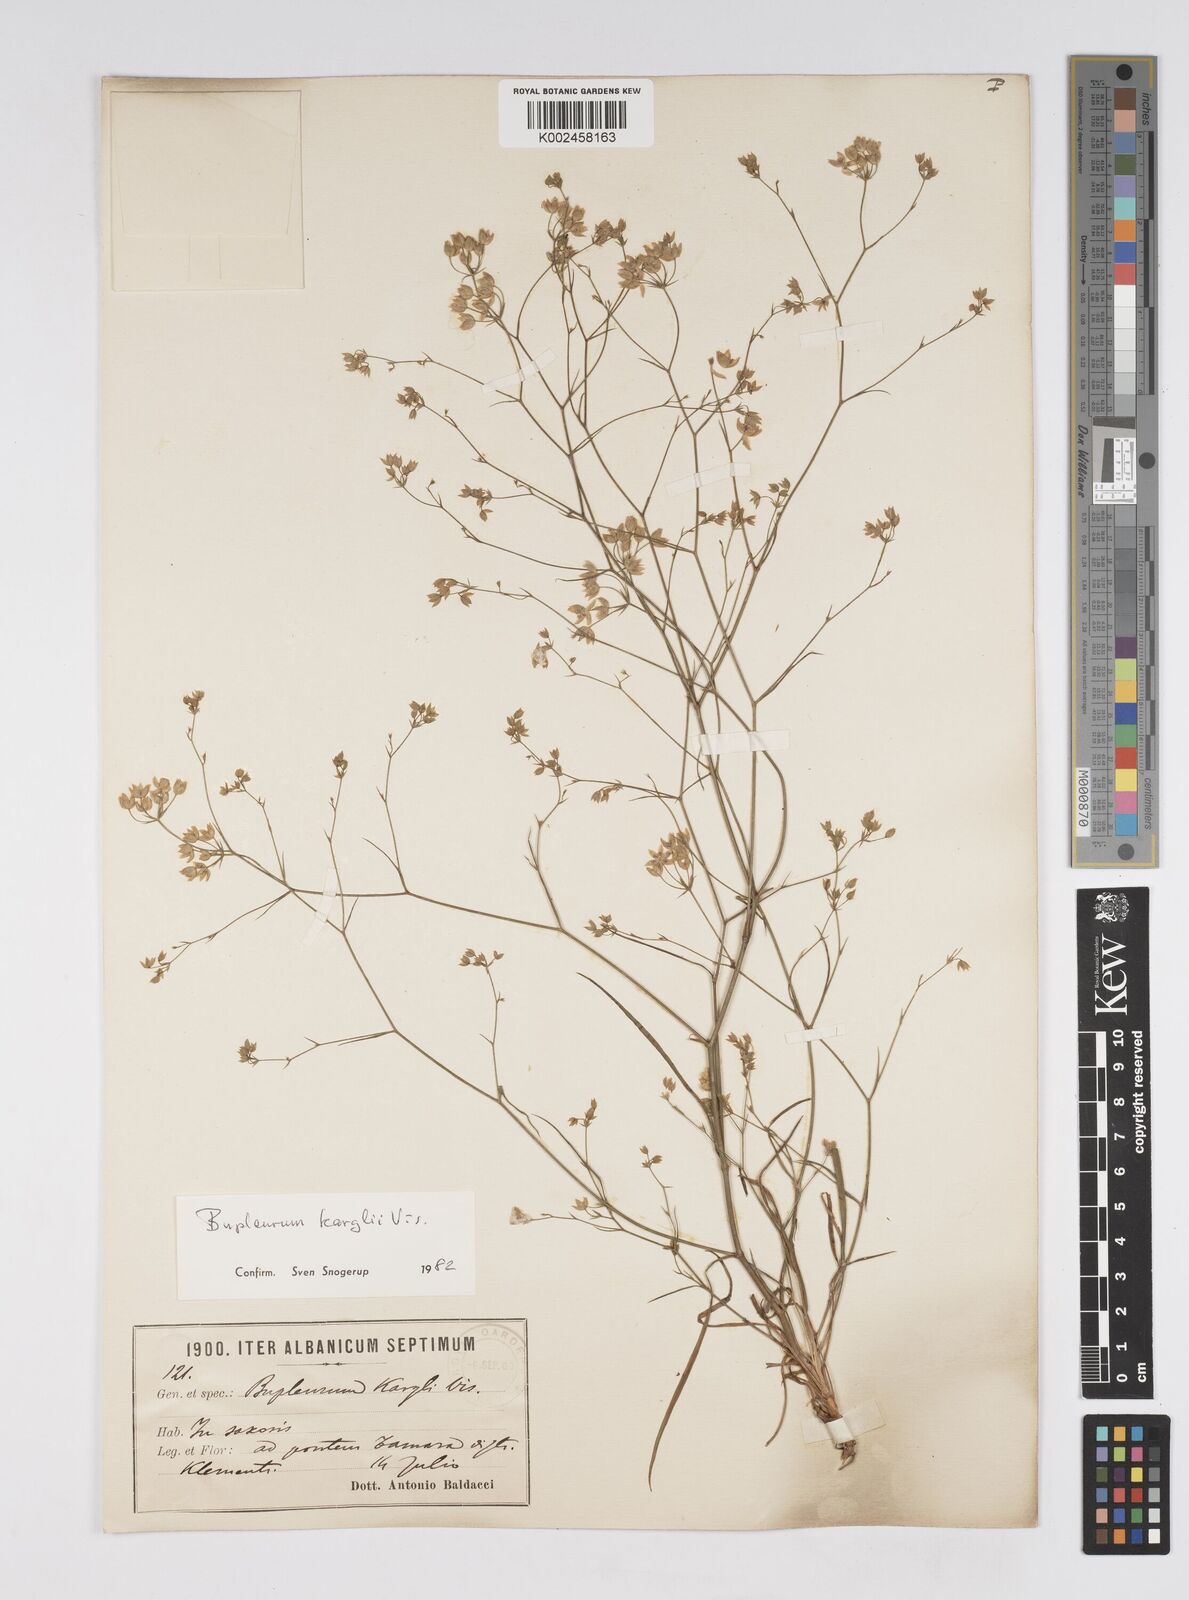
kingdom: Plantae
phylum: Tracheophyta
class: Magnoliopsida
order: Apiales
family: Apiaceae
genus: Bupleurum
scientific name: Bupleurum karglii
